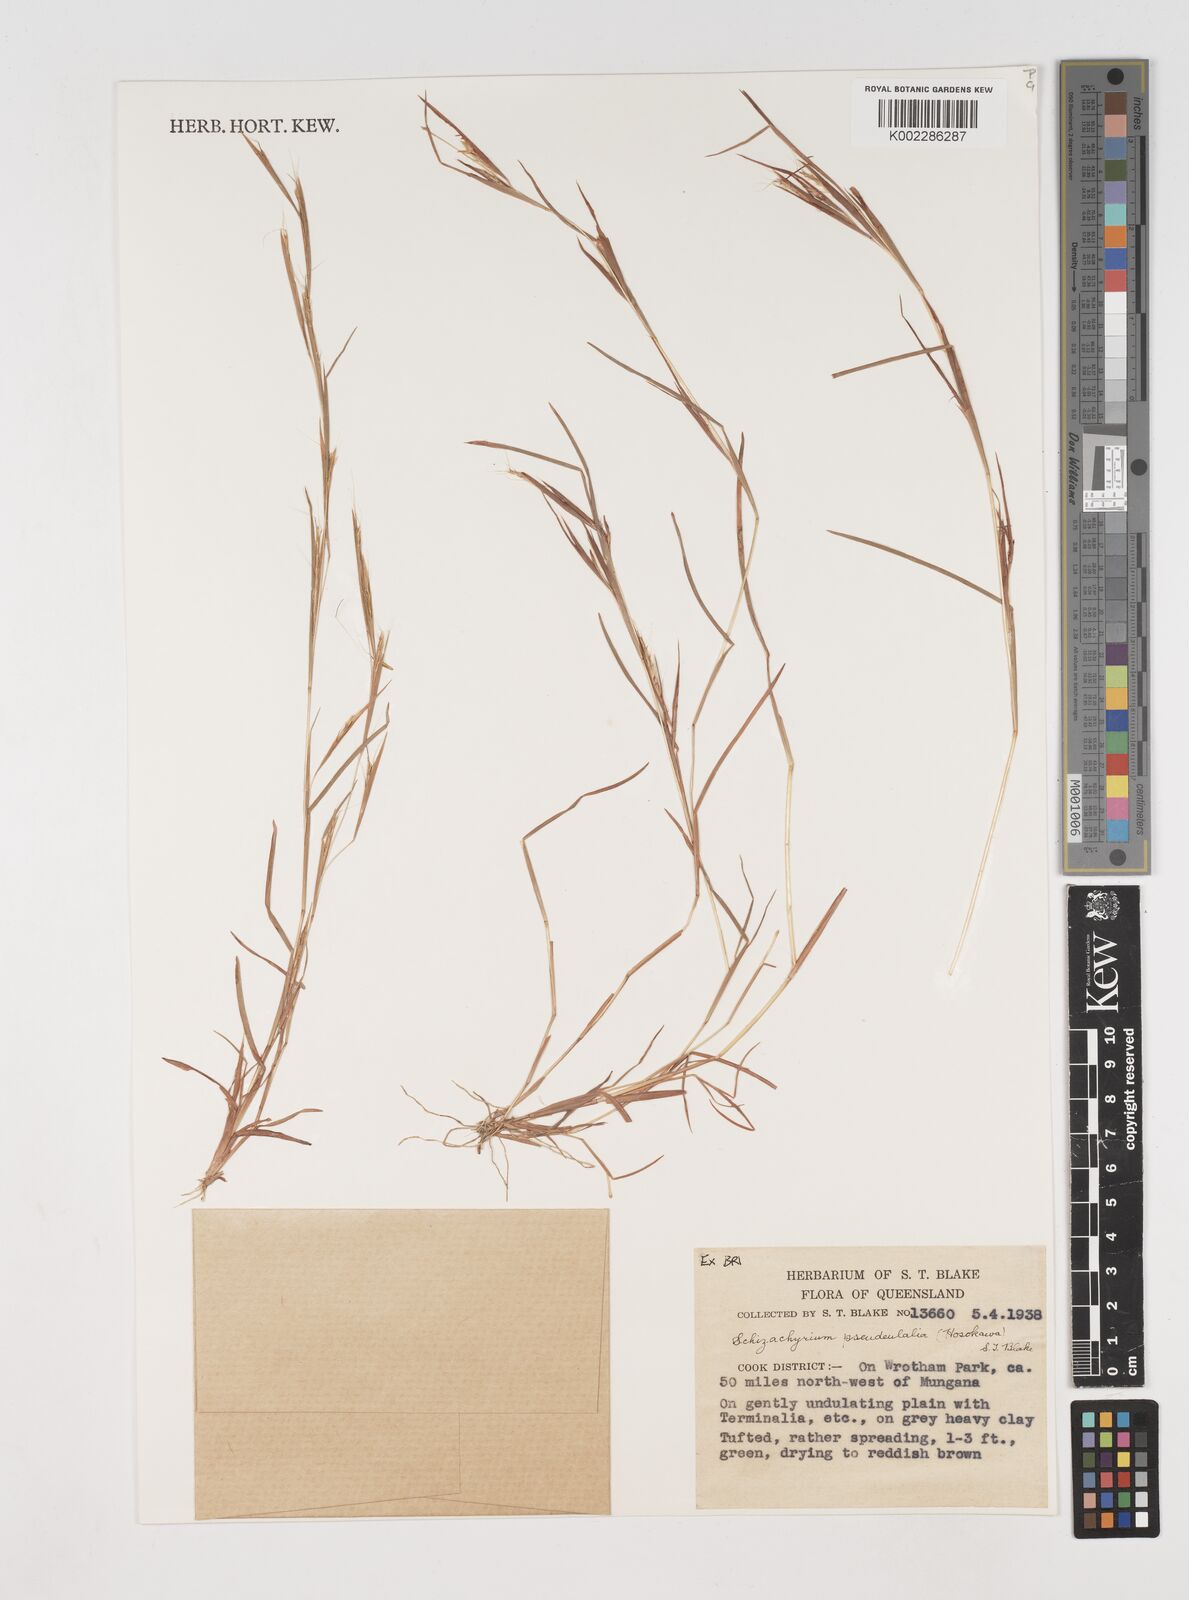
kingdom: Plantae
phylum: Tracheophyta
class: Liliopsida
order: Poales
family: Poaceae
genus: Schizachyrium
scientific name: Schizachyrium pseudeulalia
